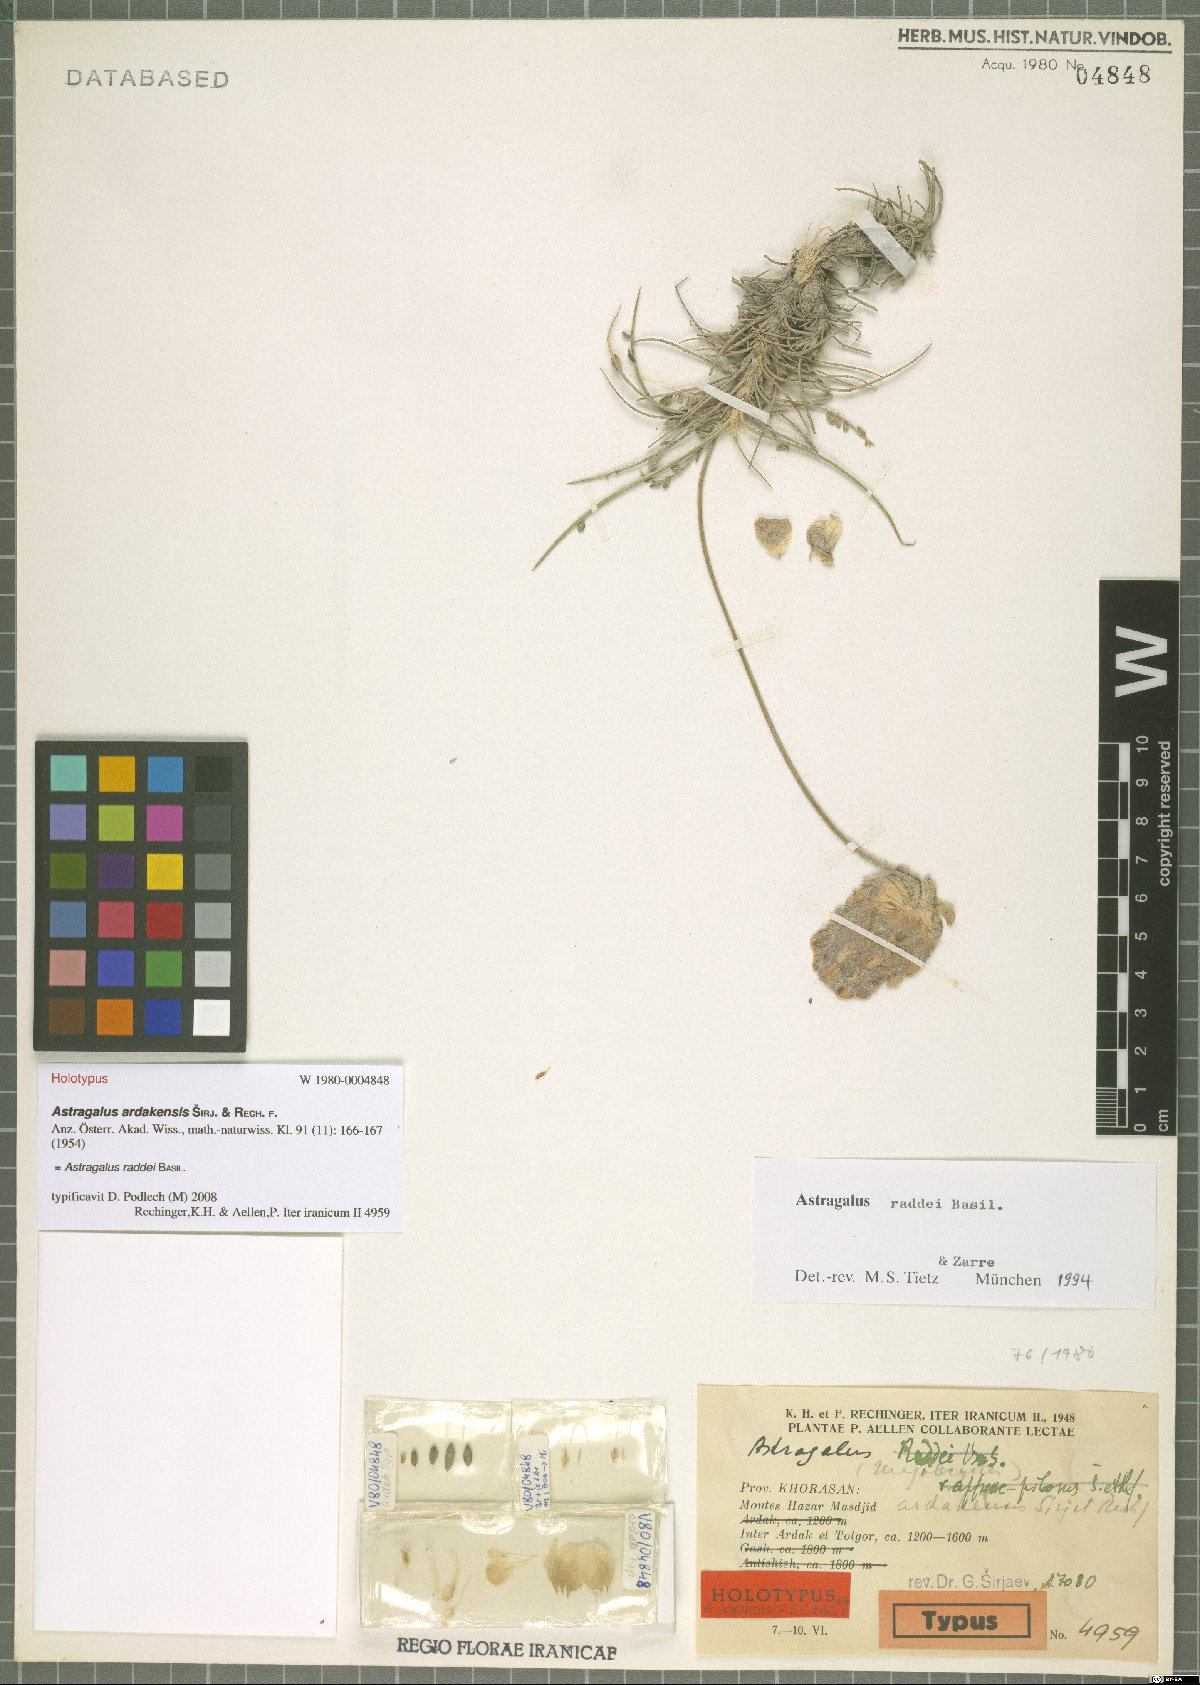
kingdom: Plantae
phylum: Tracheophyta
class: Magnoliopsida
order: Fabales
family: Fabaceae
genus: Astragalus
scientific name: Astragalus raddei
